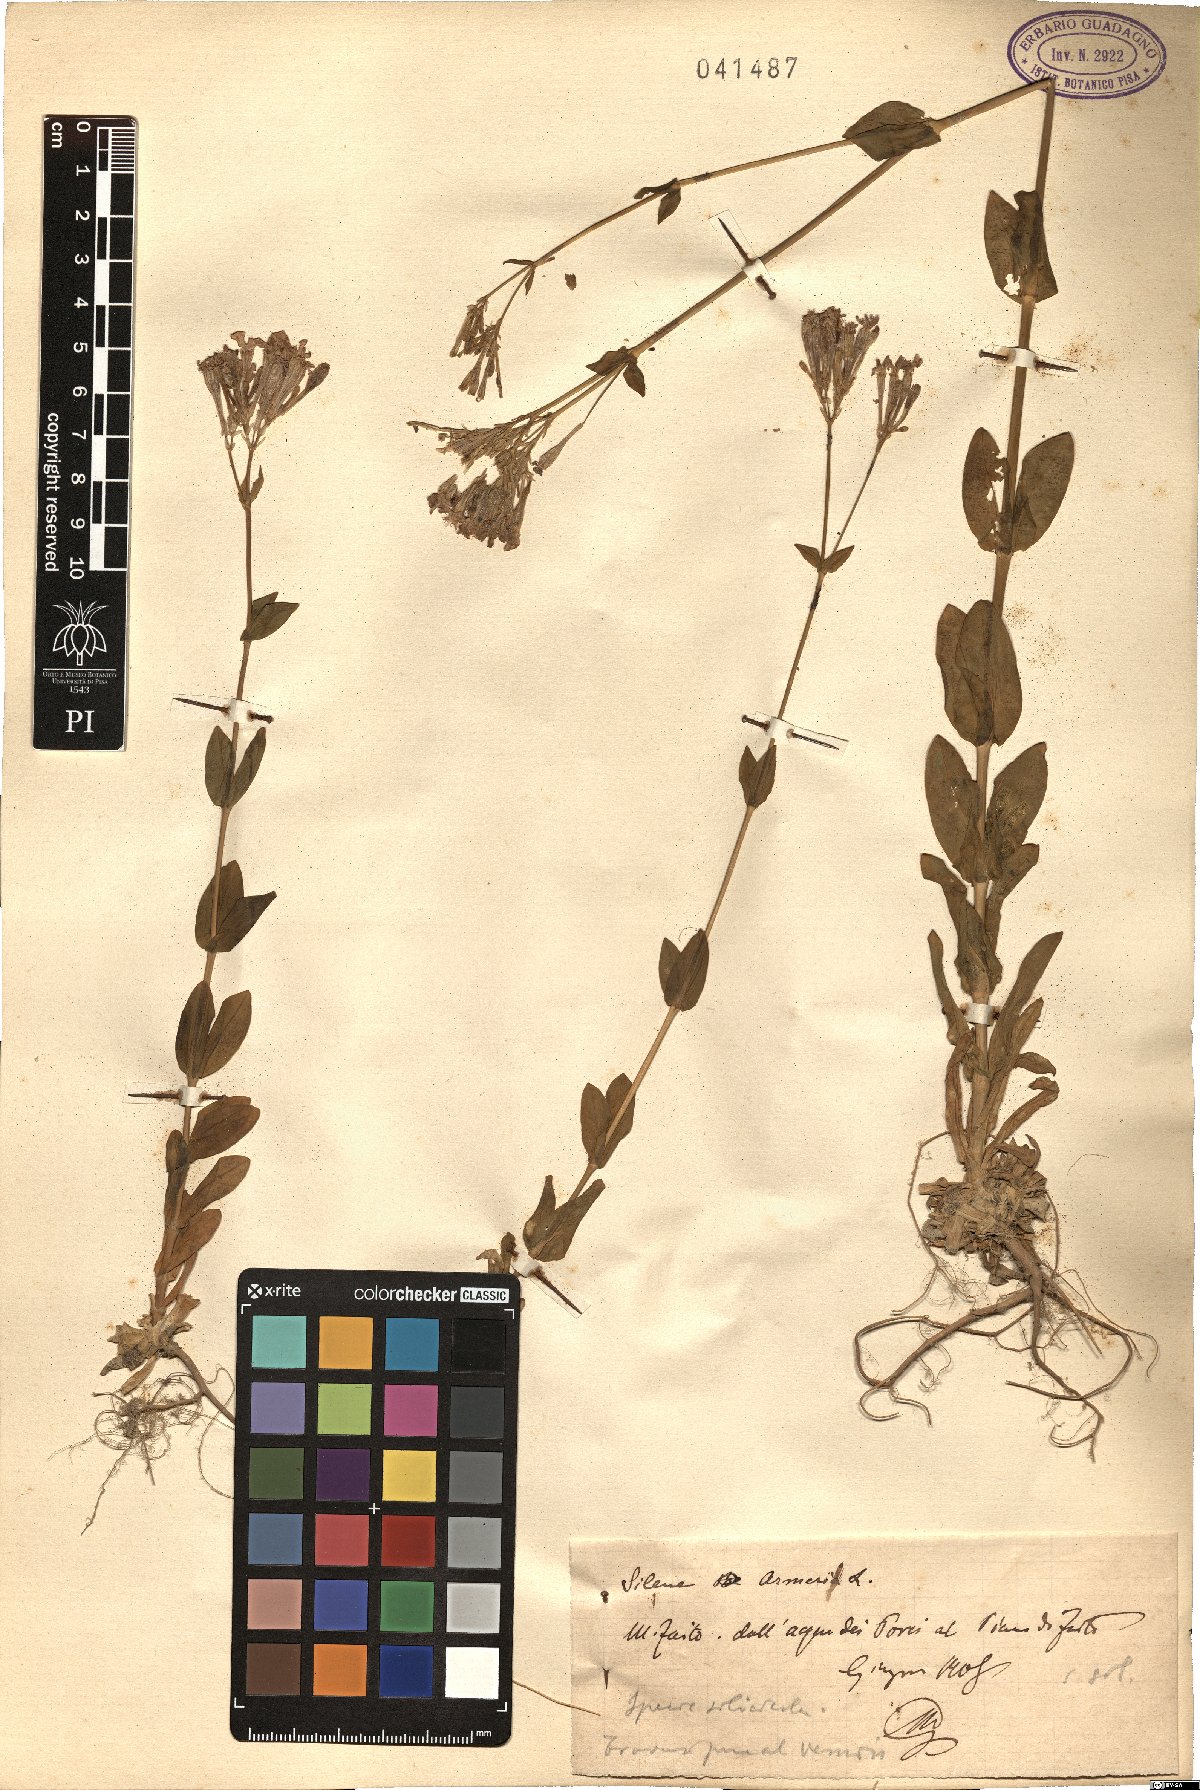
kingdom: Plantae
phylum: Tracheophyta
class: Magnoliopsida
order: Caryophyllales
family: Caryophyllaceae
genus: Atocion
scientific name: Atocion armeria
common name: Sweet william catchfly
